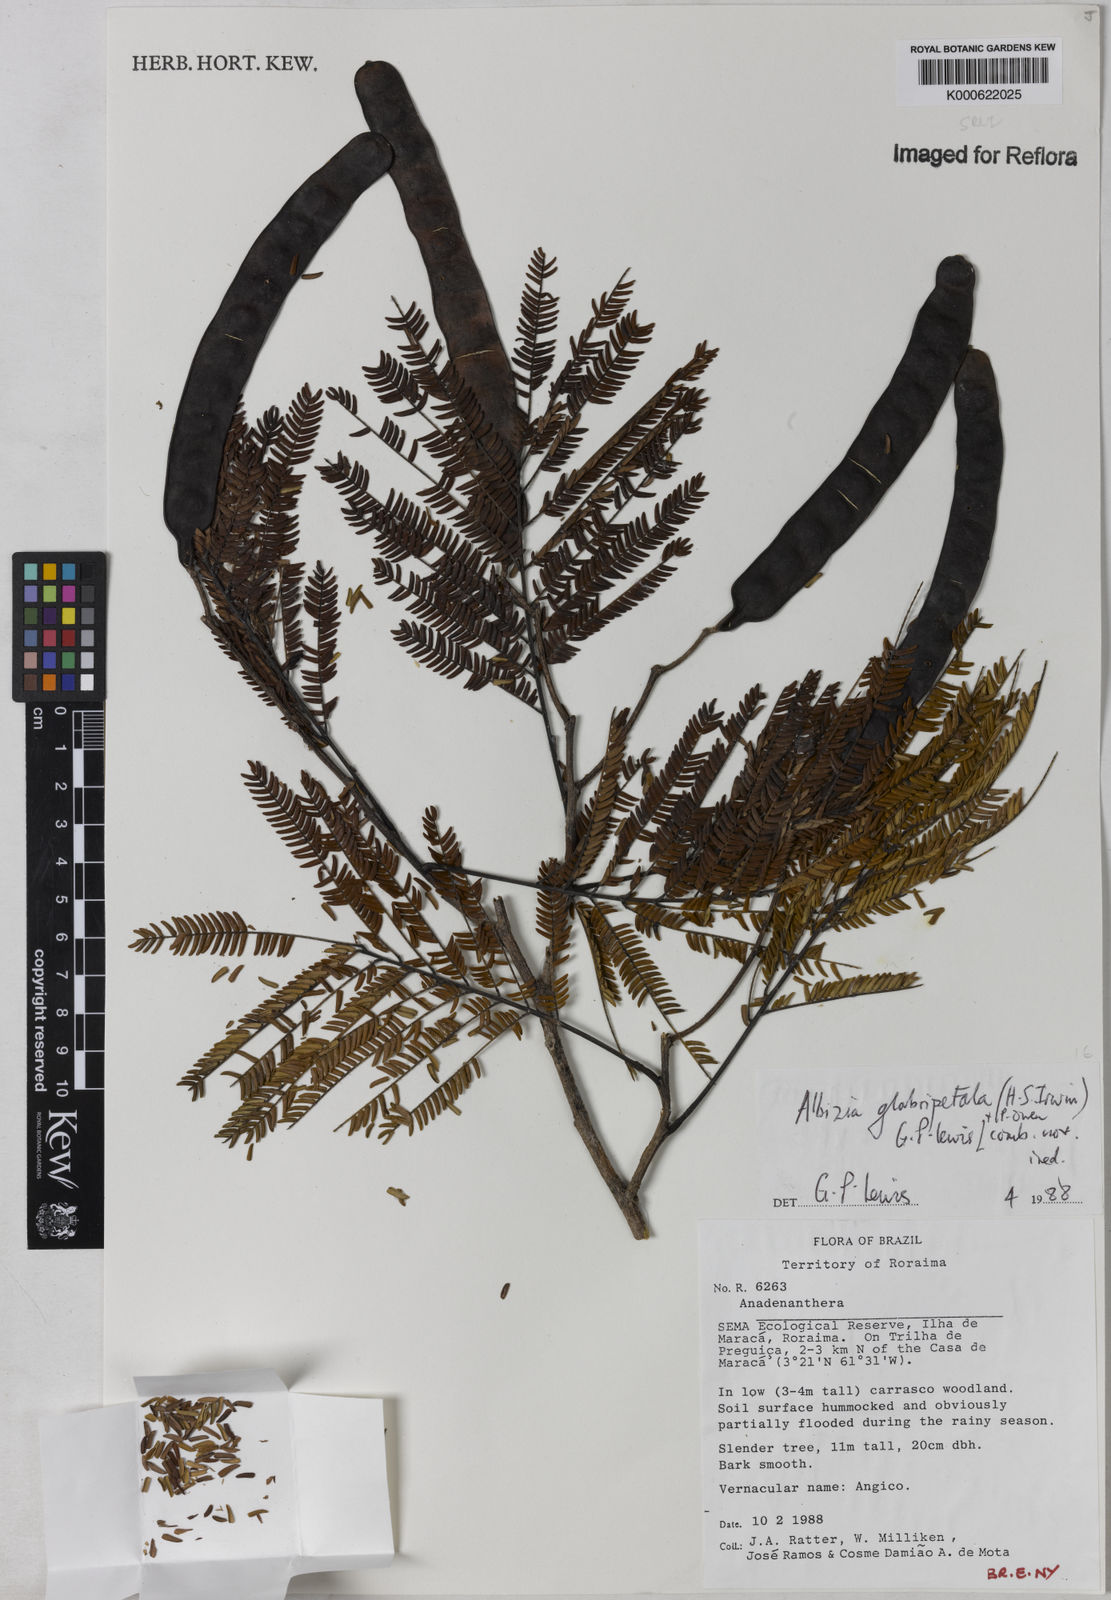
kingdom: Plantae
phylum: Tracheophyta
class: Magnoliopsida
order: Fabales
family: Fabaceae
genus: Albizia
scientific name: Albizia glabripetala
